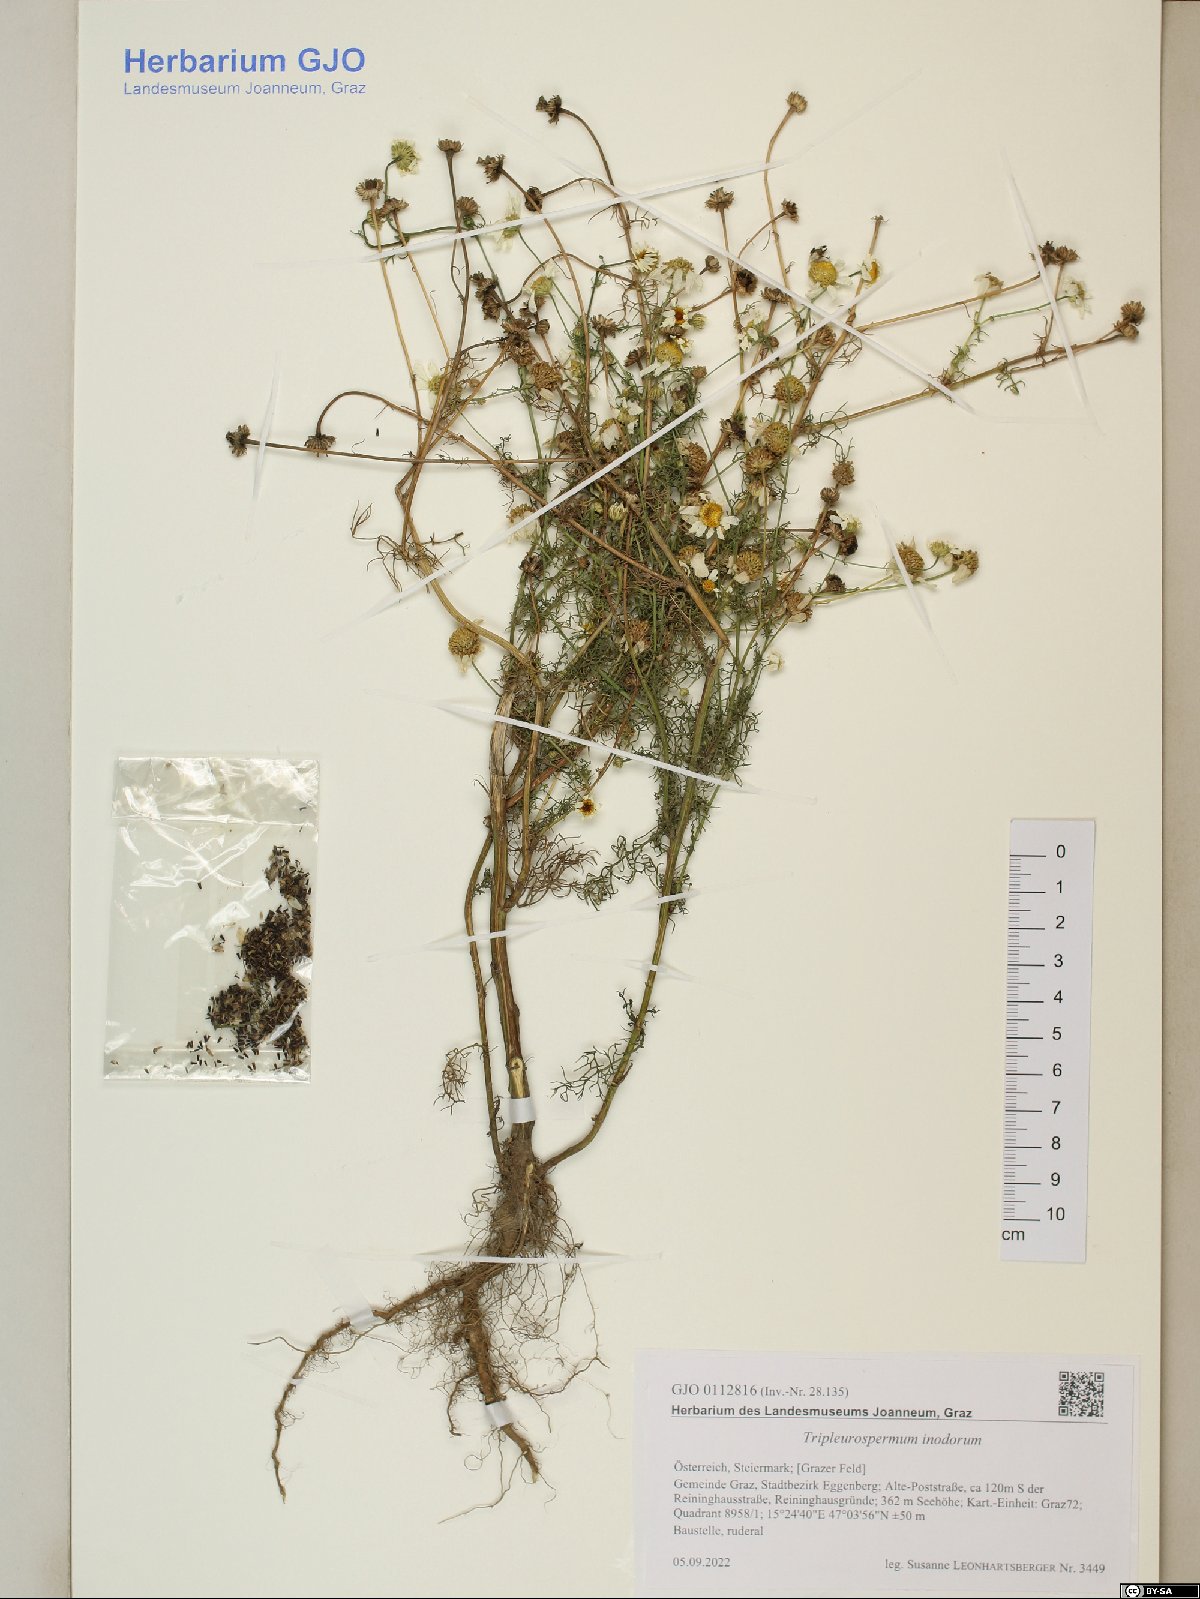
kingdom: Plantae
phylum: Tracheophyta
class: Magnoliopsida
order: Asterales
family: Asteraceae
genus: Tripleurospermum
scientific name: Tripleurospermum inodorum
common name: Scentless mayweed
